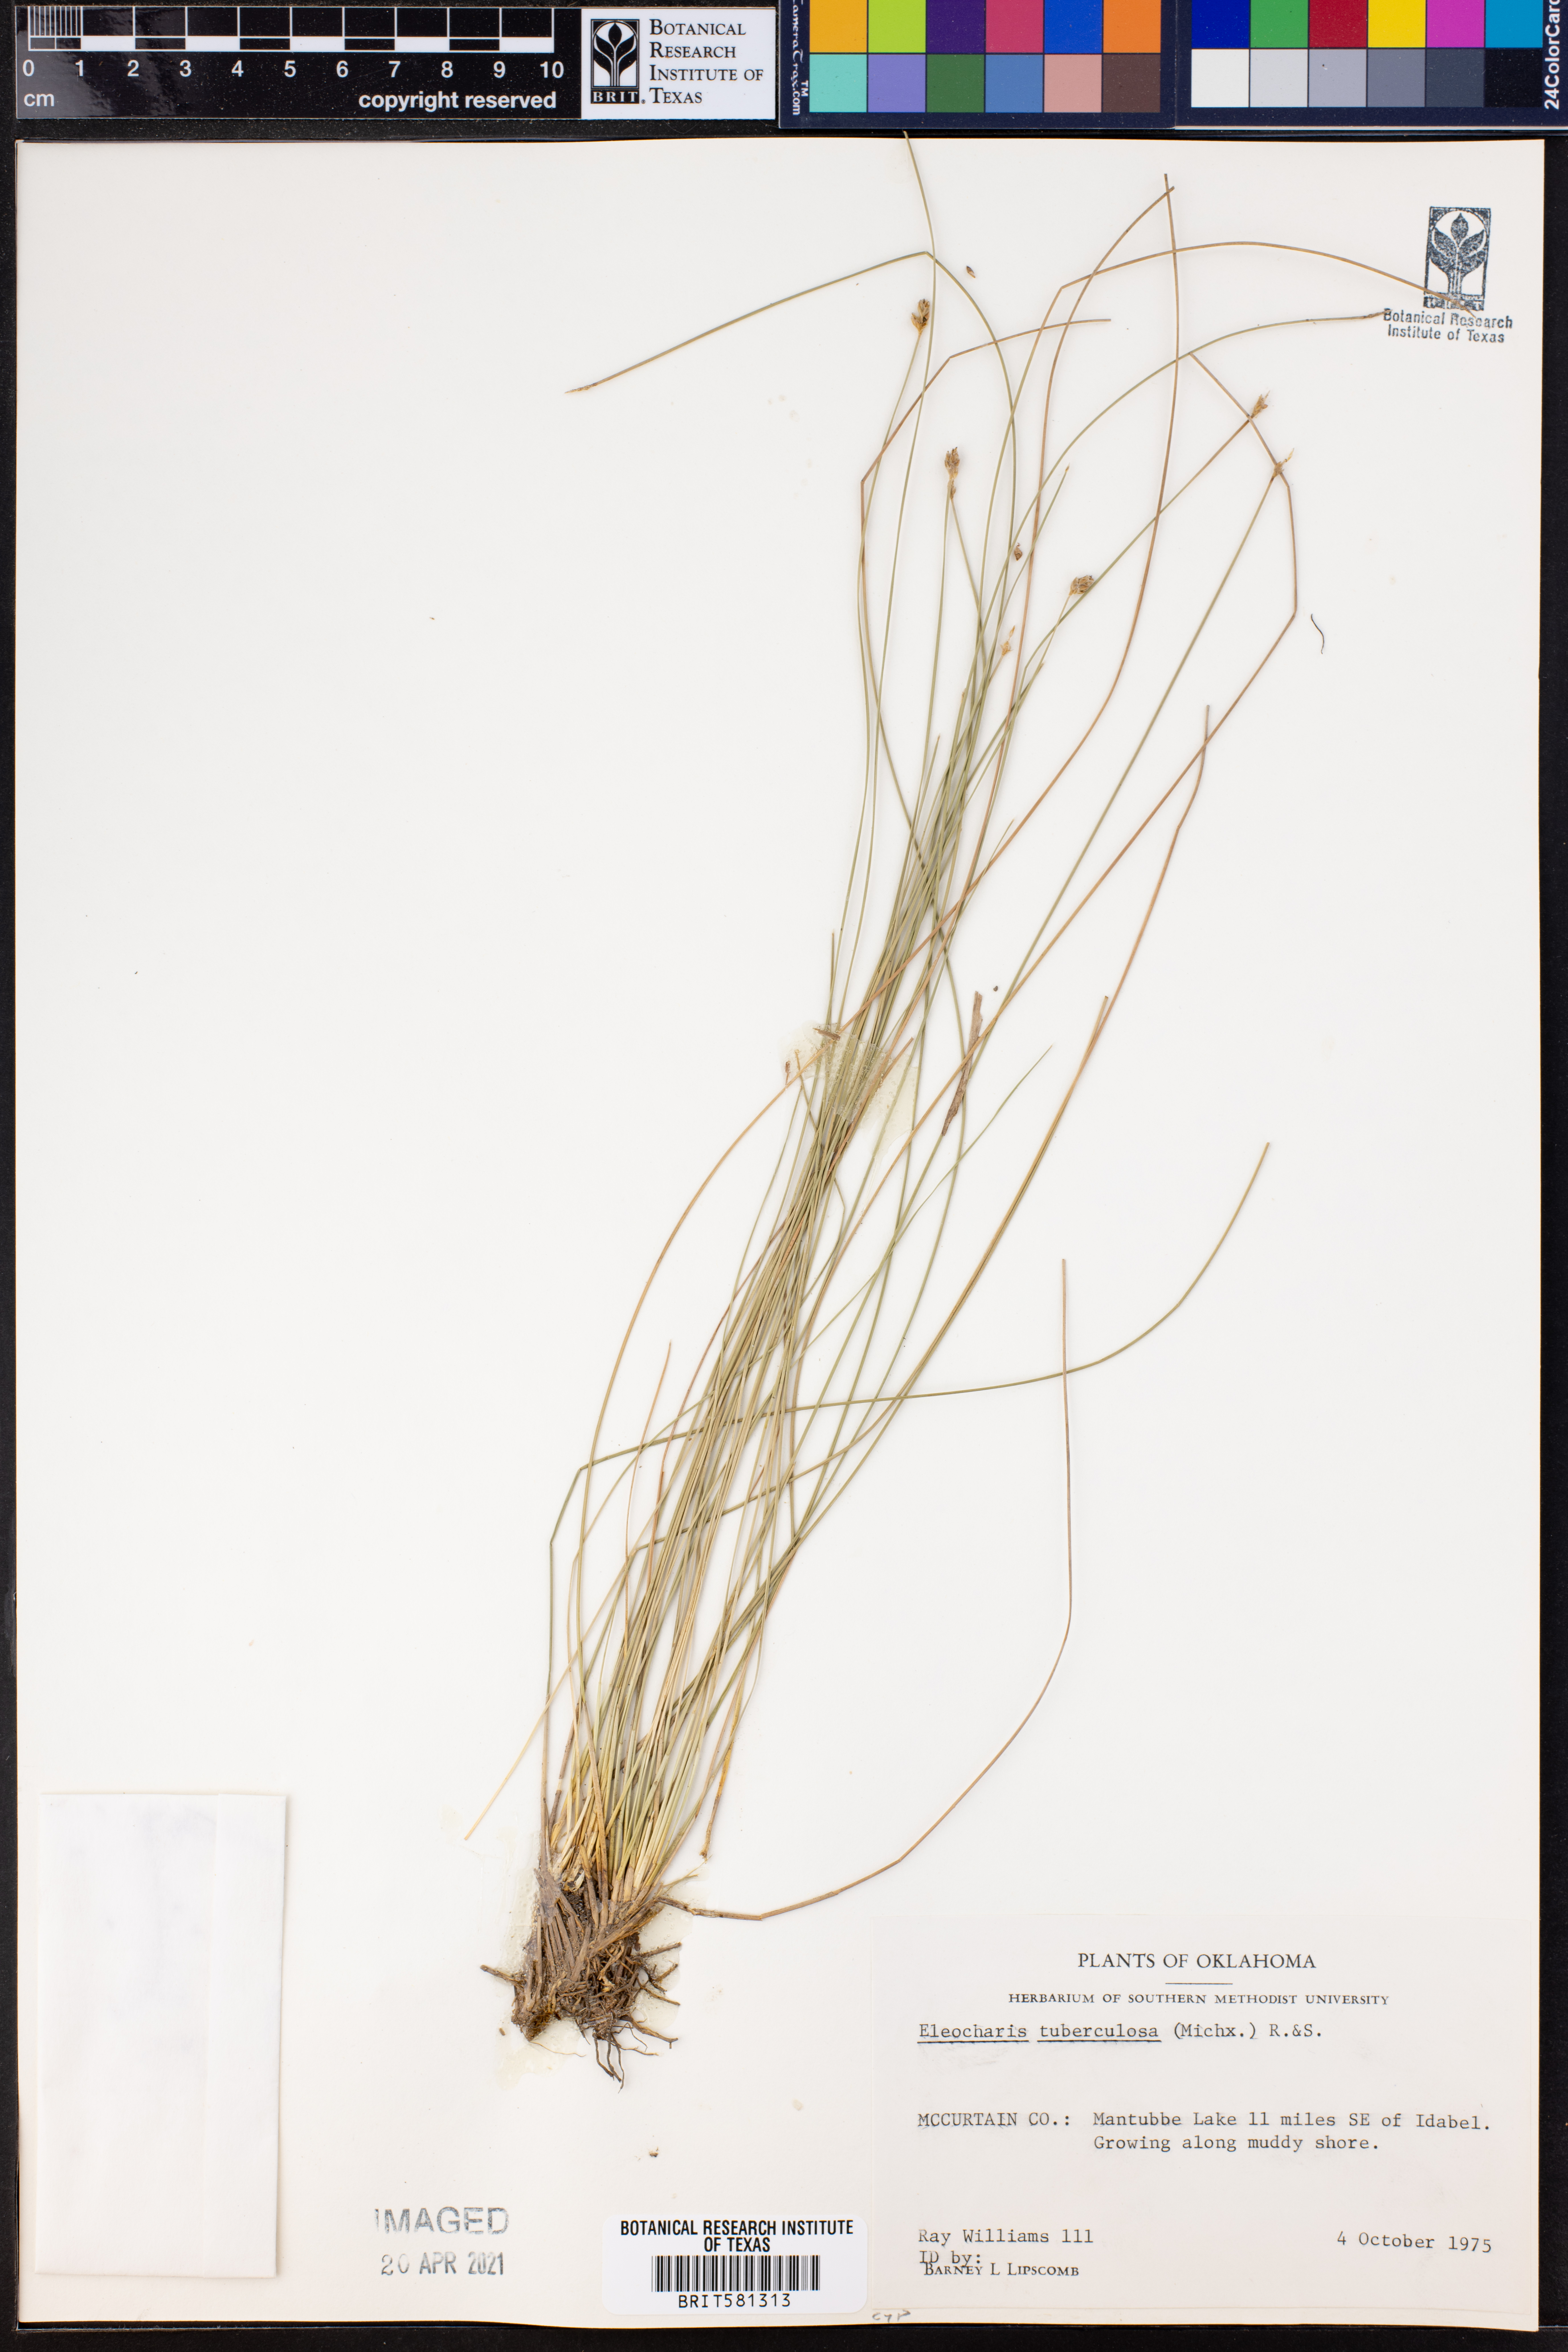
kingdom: Plantae
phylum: Tracheophyta
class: Liliopsida
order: Poales
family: Cyperaceae
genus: Eleocharis
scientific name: Eleocharis tuberculosa
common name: Cone-cup spikerush
